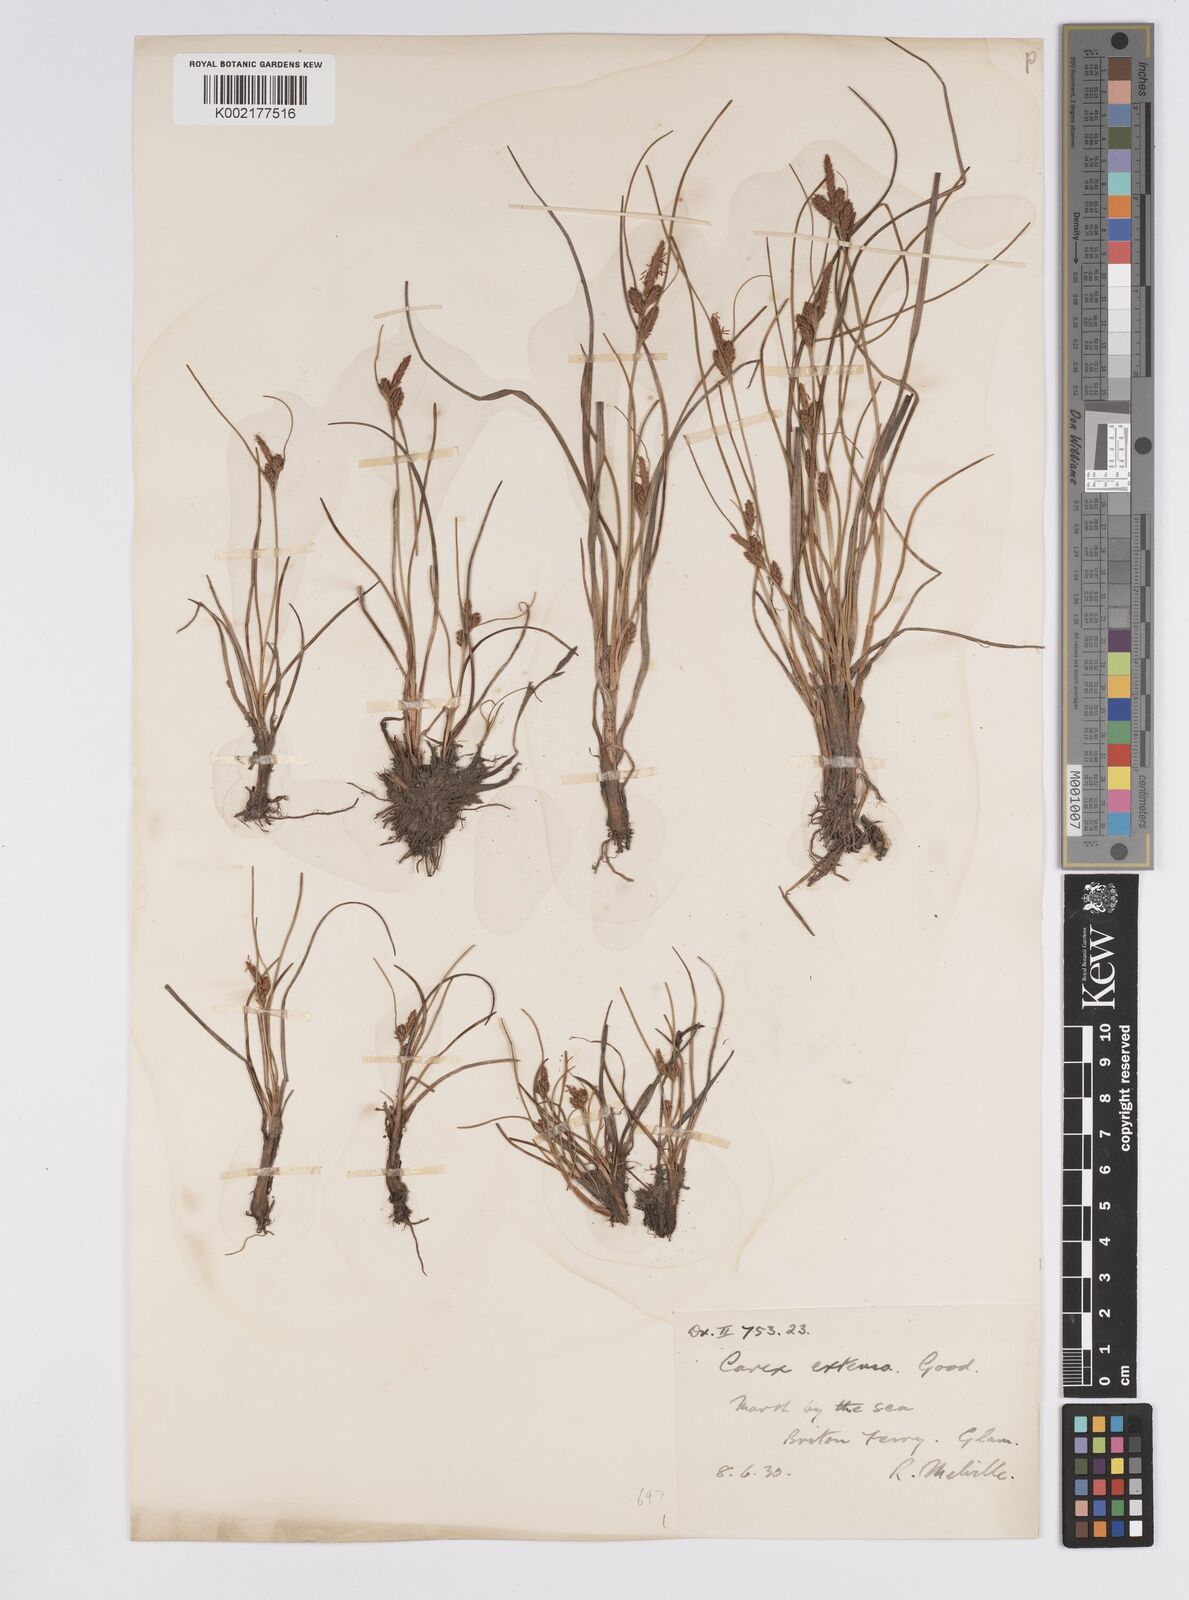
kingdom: Plantae
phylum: Tracheophyta
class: Liliopsida
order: Poales
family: Cyperaceae
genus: Carex
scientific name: Carex extensa
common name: Long-bracted sedge
